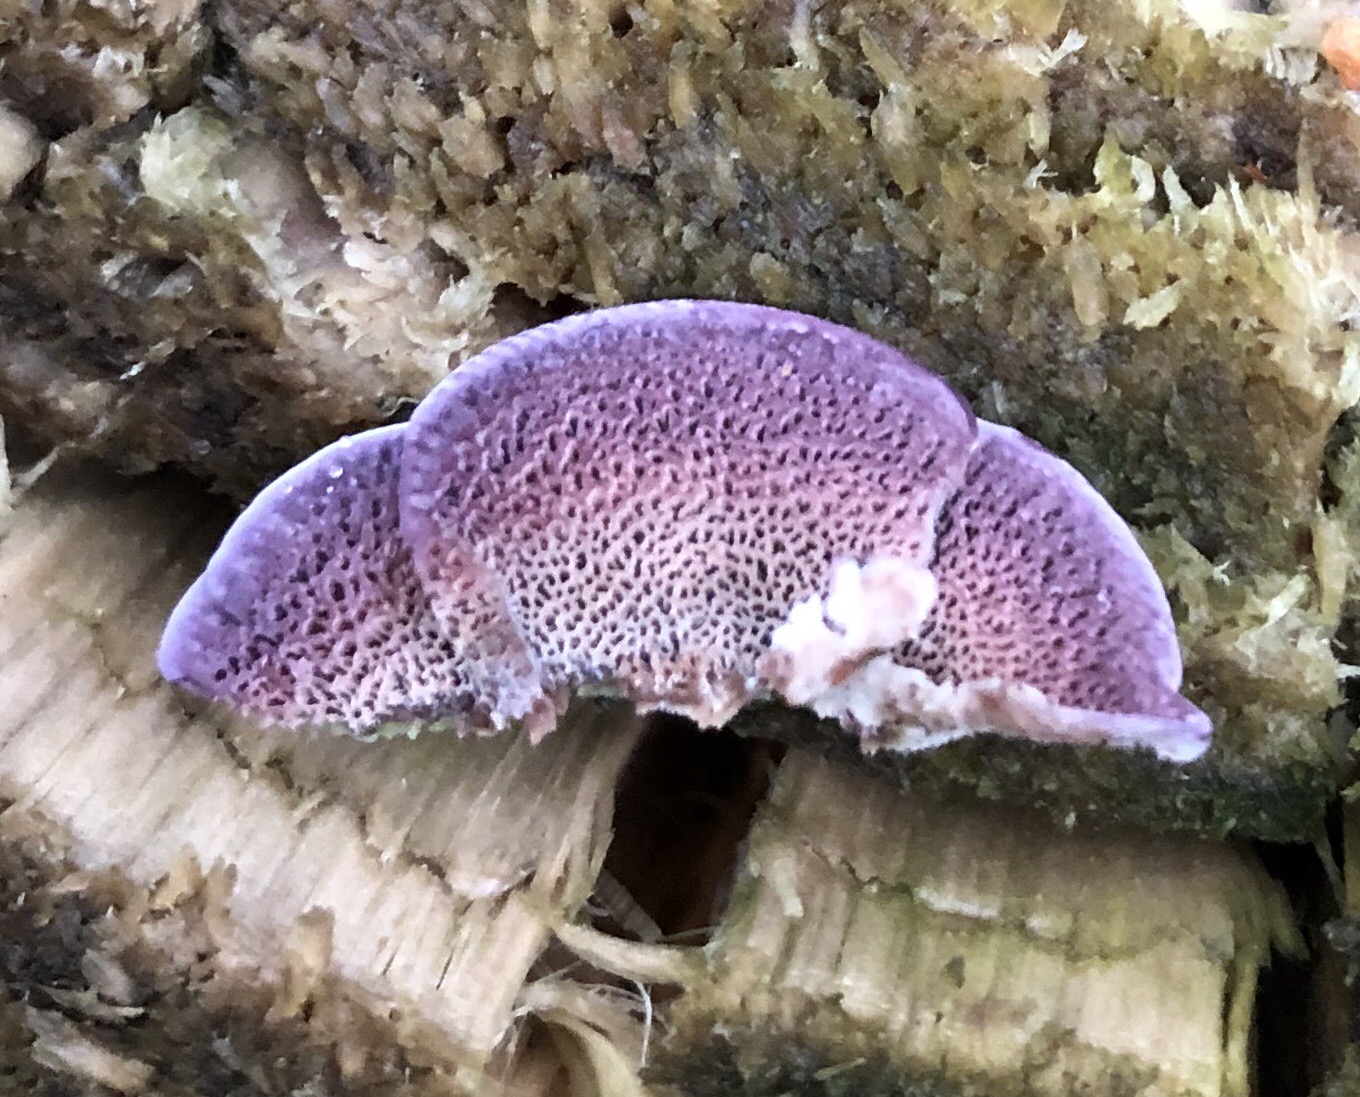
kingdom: Fungi
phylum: Basidiomycota
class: Agaricomycetes
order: Hymenochaetales
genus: Trichaptum
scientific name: Trichaptum abietinum
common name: almindelig violporesvamp
